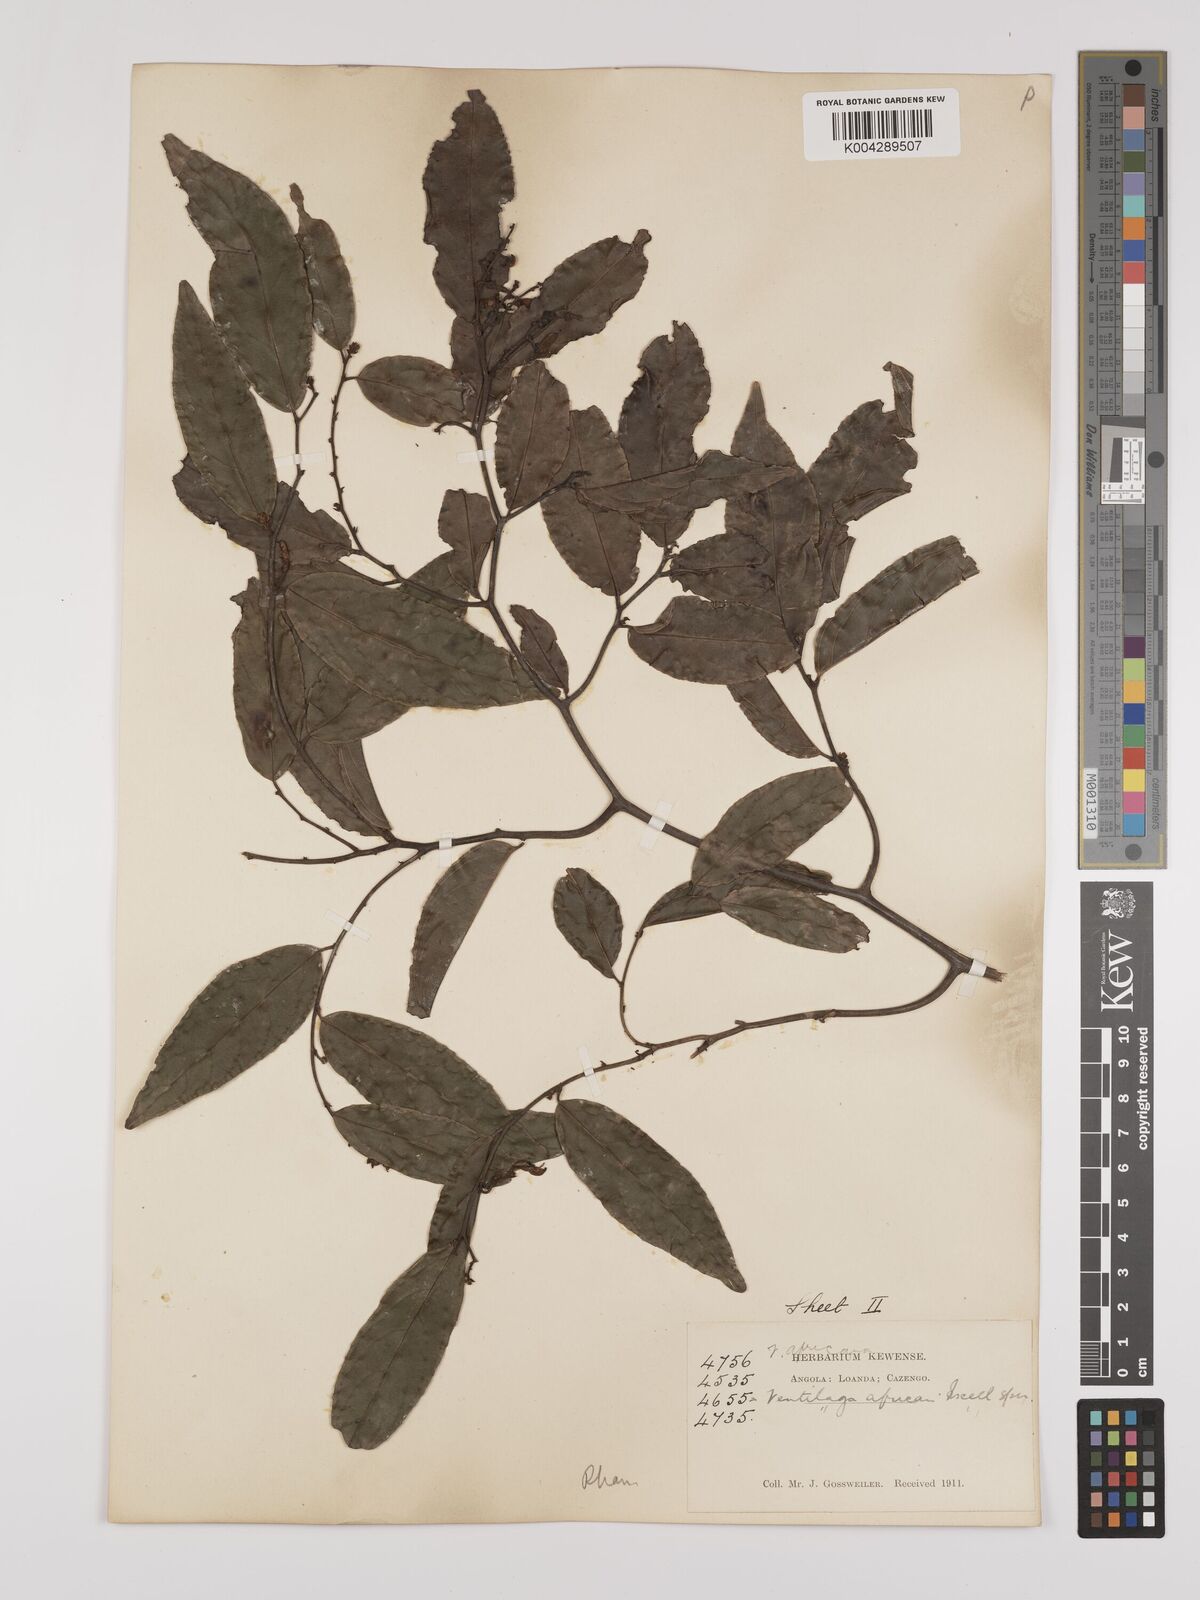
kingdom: Plantae
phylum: Tracheophyta
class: Magnoliopsida
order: Rosales
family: Rhamnaceae
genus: Ventilago
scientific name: Ventilago africana
